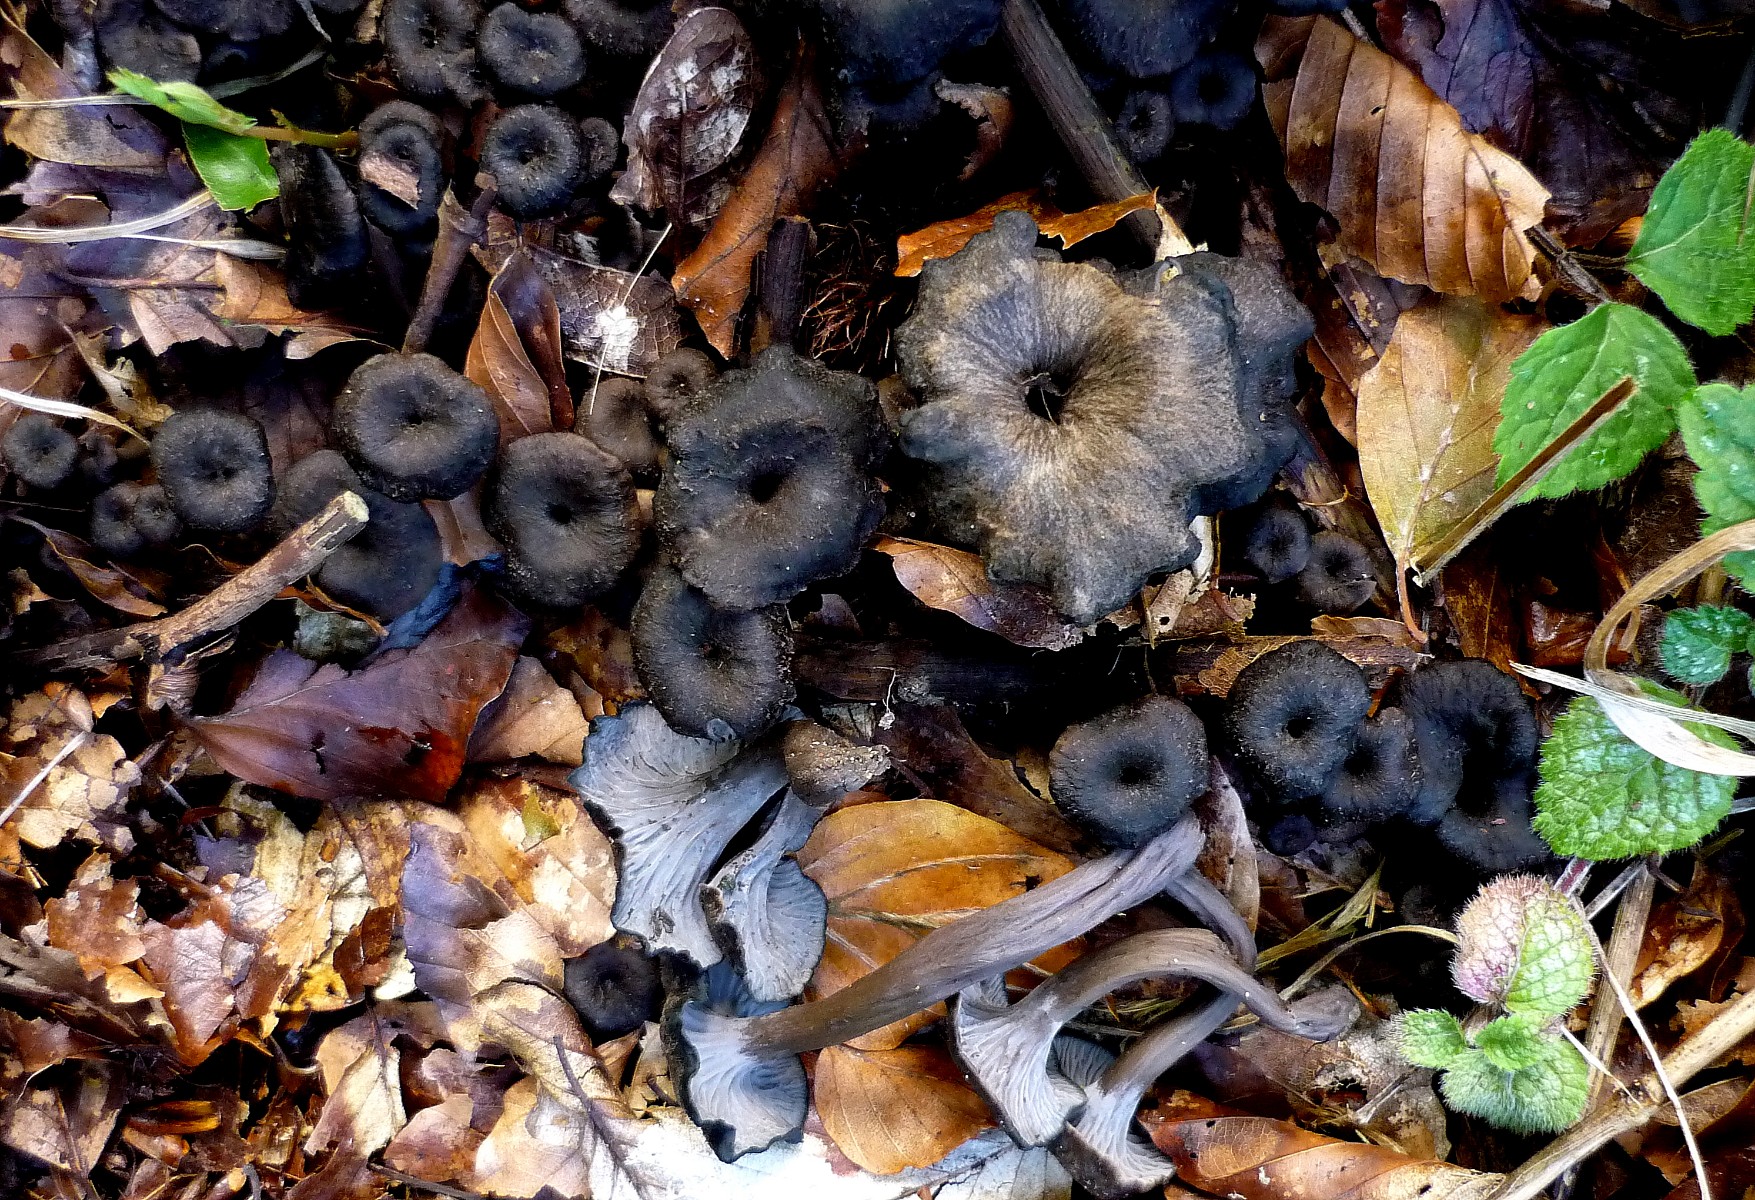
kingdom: Fungi
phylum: Basidiomycota
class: Agaricomycetes
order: Cantharellales
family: Hydnaceae
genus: Cantharellus
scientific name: Cantharellus cinereus
